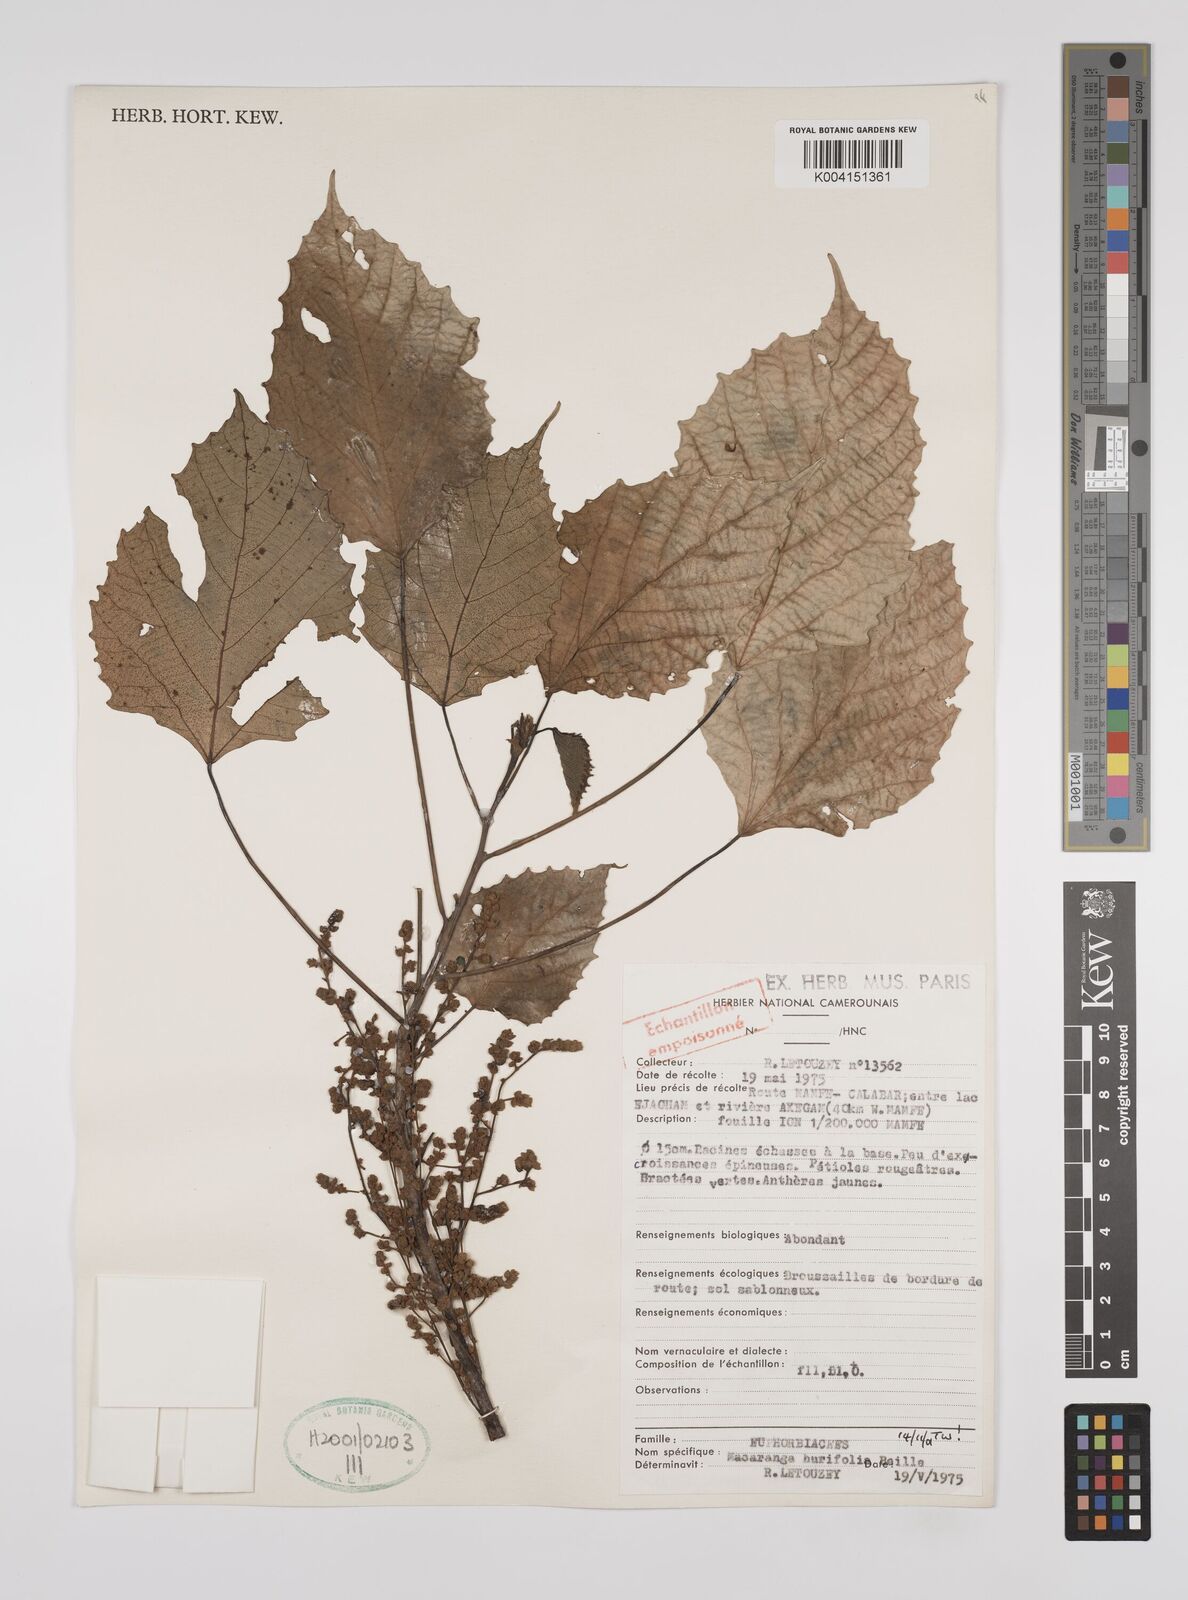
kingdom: Plantae
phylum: Tracheophyta
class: Magnoliopsida
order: Malpighiales
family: Euphorbiaceae
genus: Macaranga
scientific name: Macaranga hurifolia
